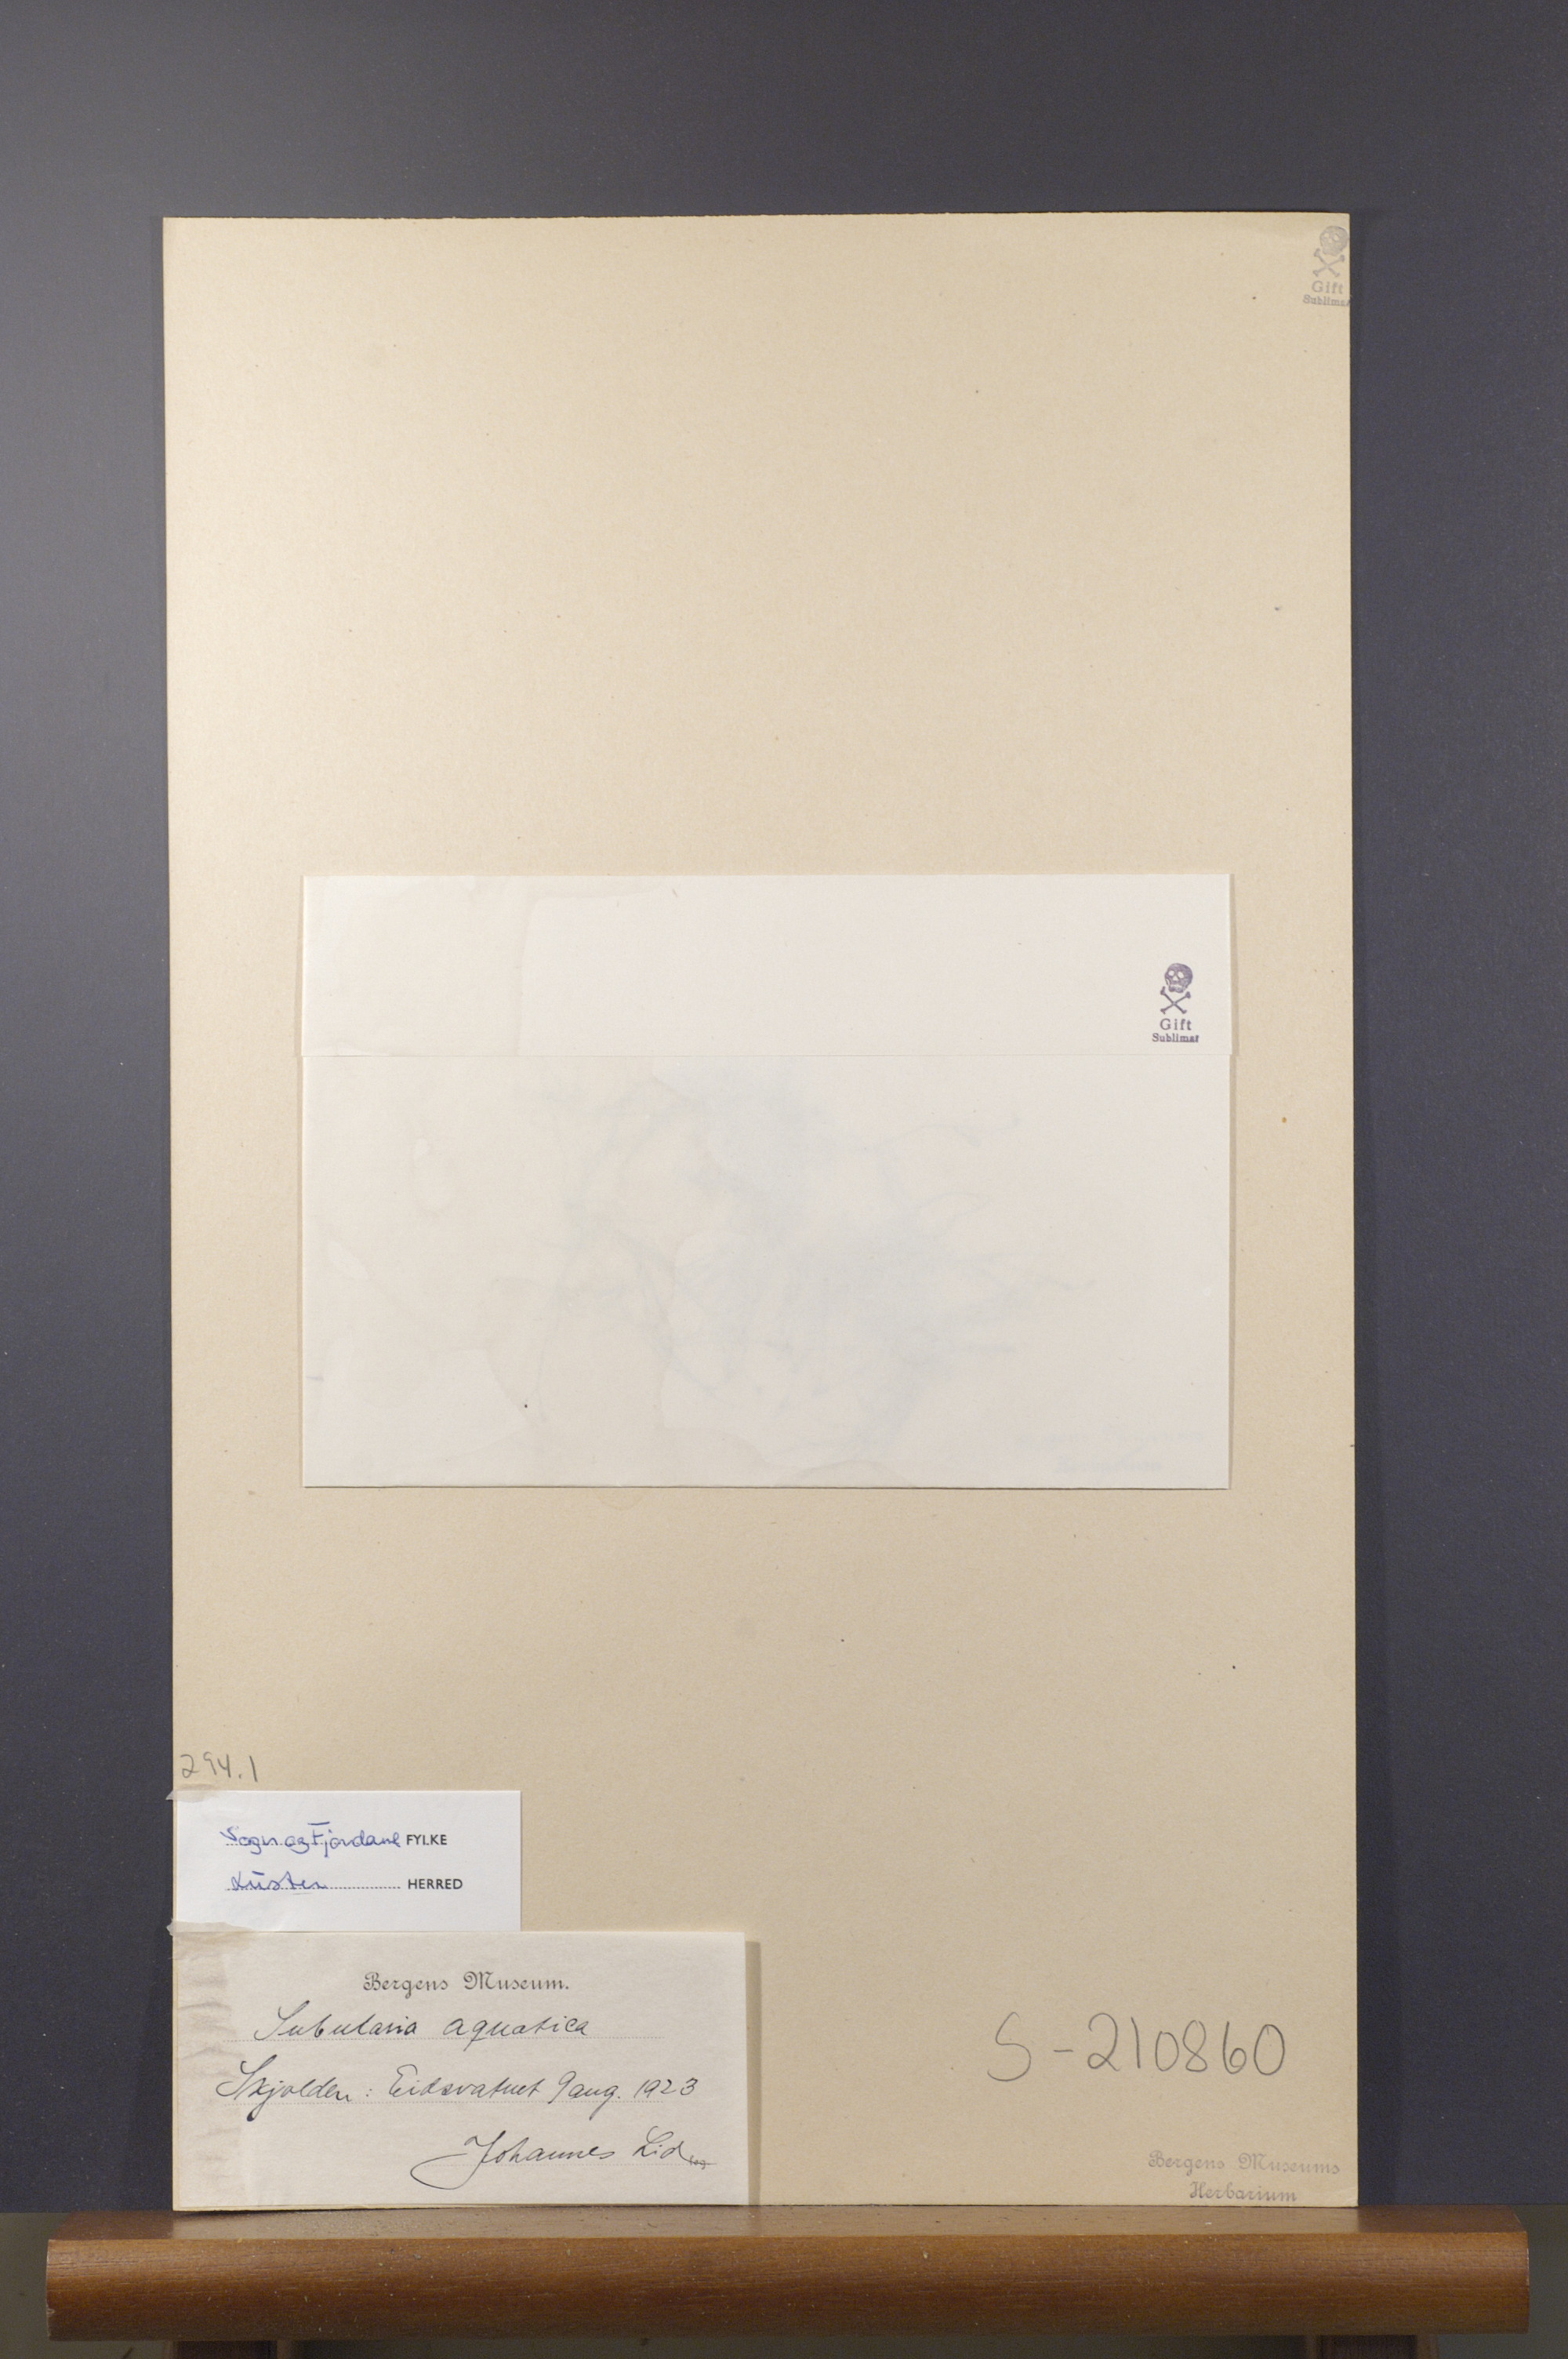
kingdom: Plantae
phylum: Tracheophyta
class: Magnoliopsida
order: Brassicales
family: Brassicaceae
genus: Subularia
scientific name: Subularia aquatica
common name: Awlwort
